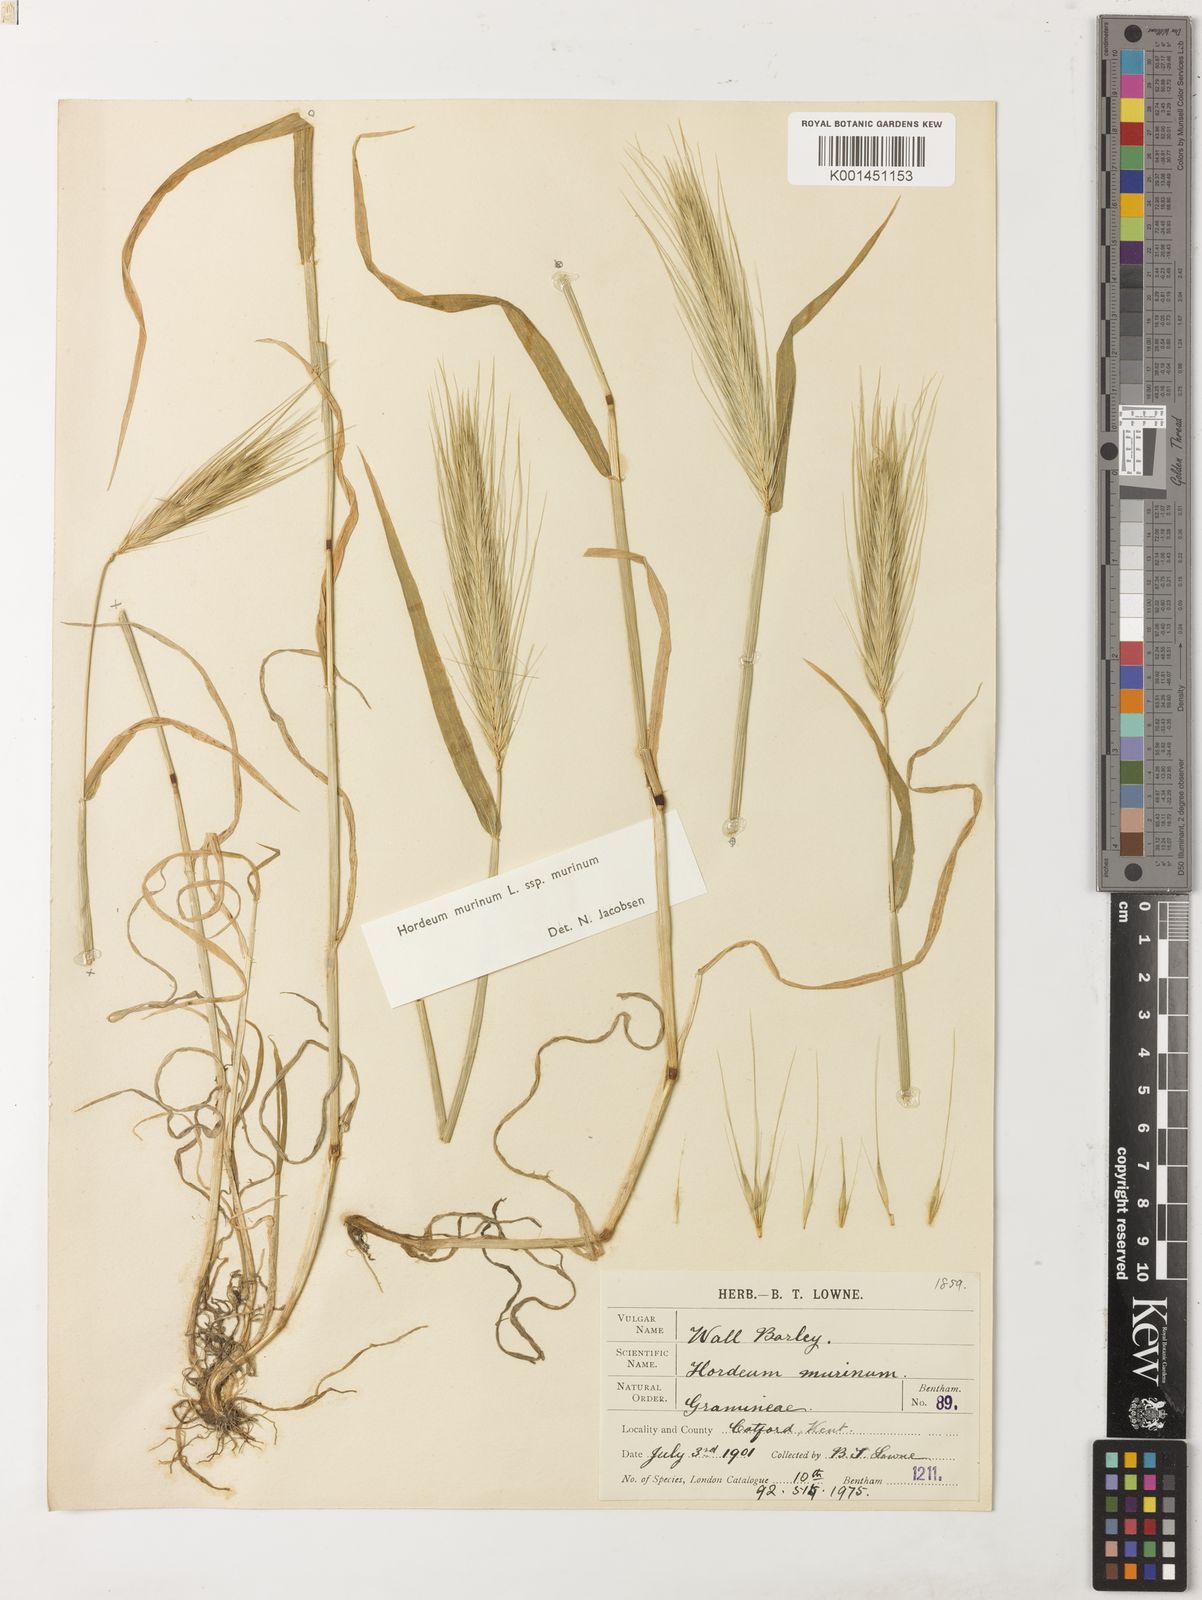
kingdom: Plantae
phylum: Tracheophyta
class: Liliopsida
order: Poales
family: Poaceae
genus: Hordeum
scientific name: Hordeum murinum
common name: Wall barley
